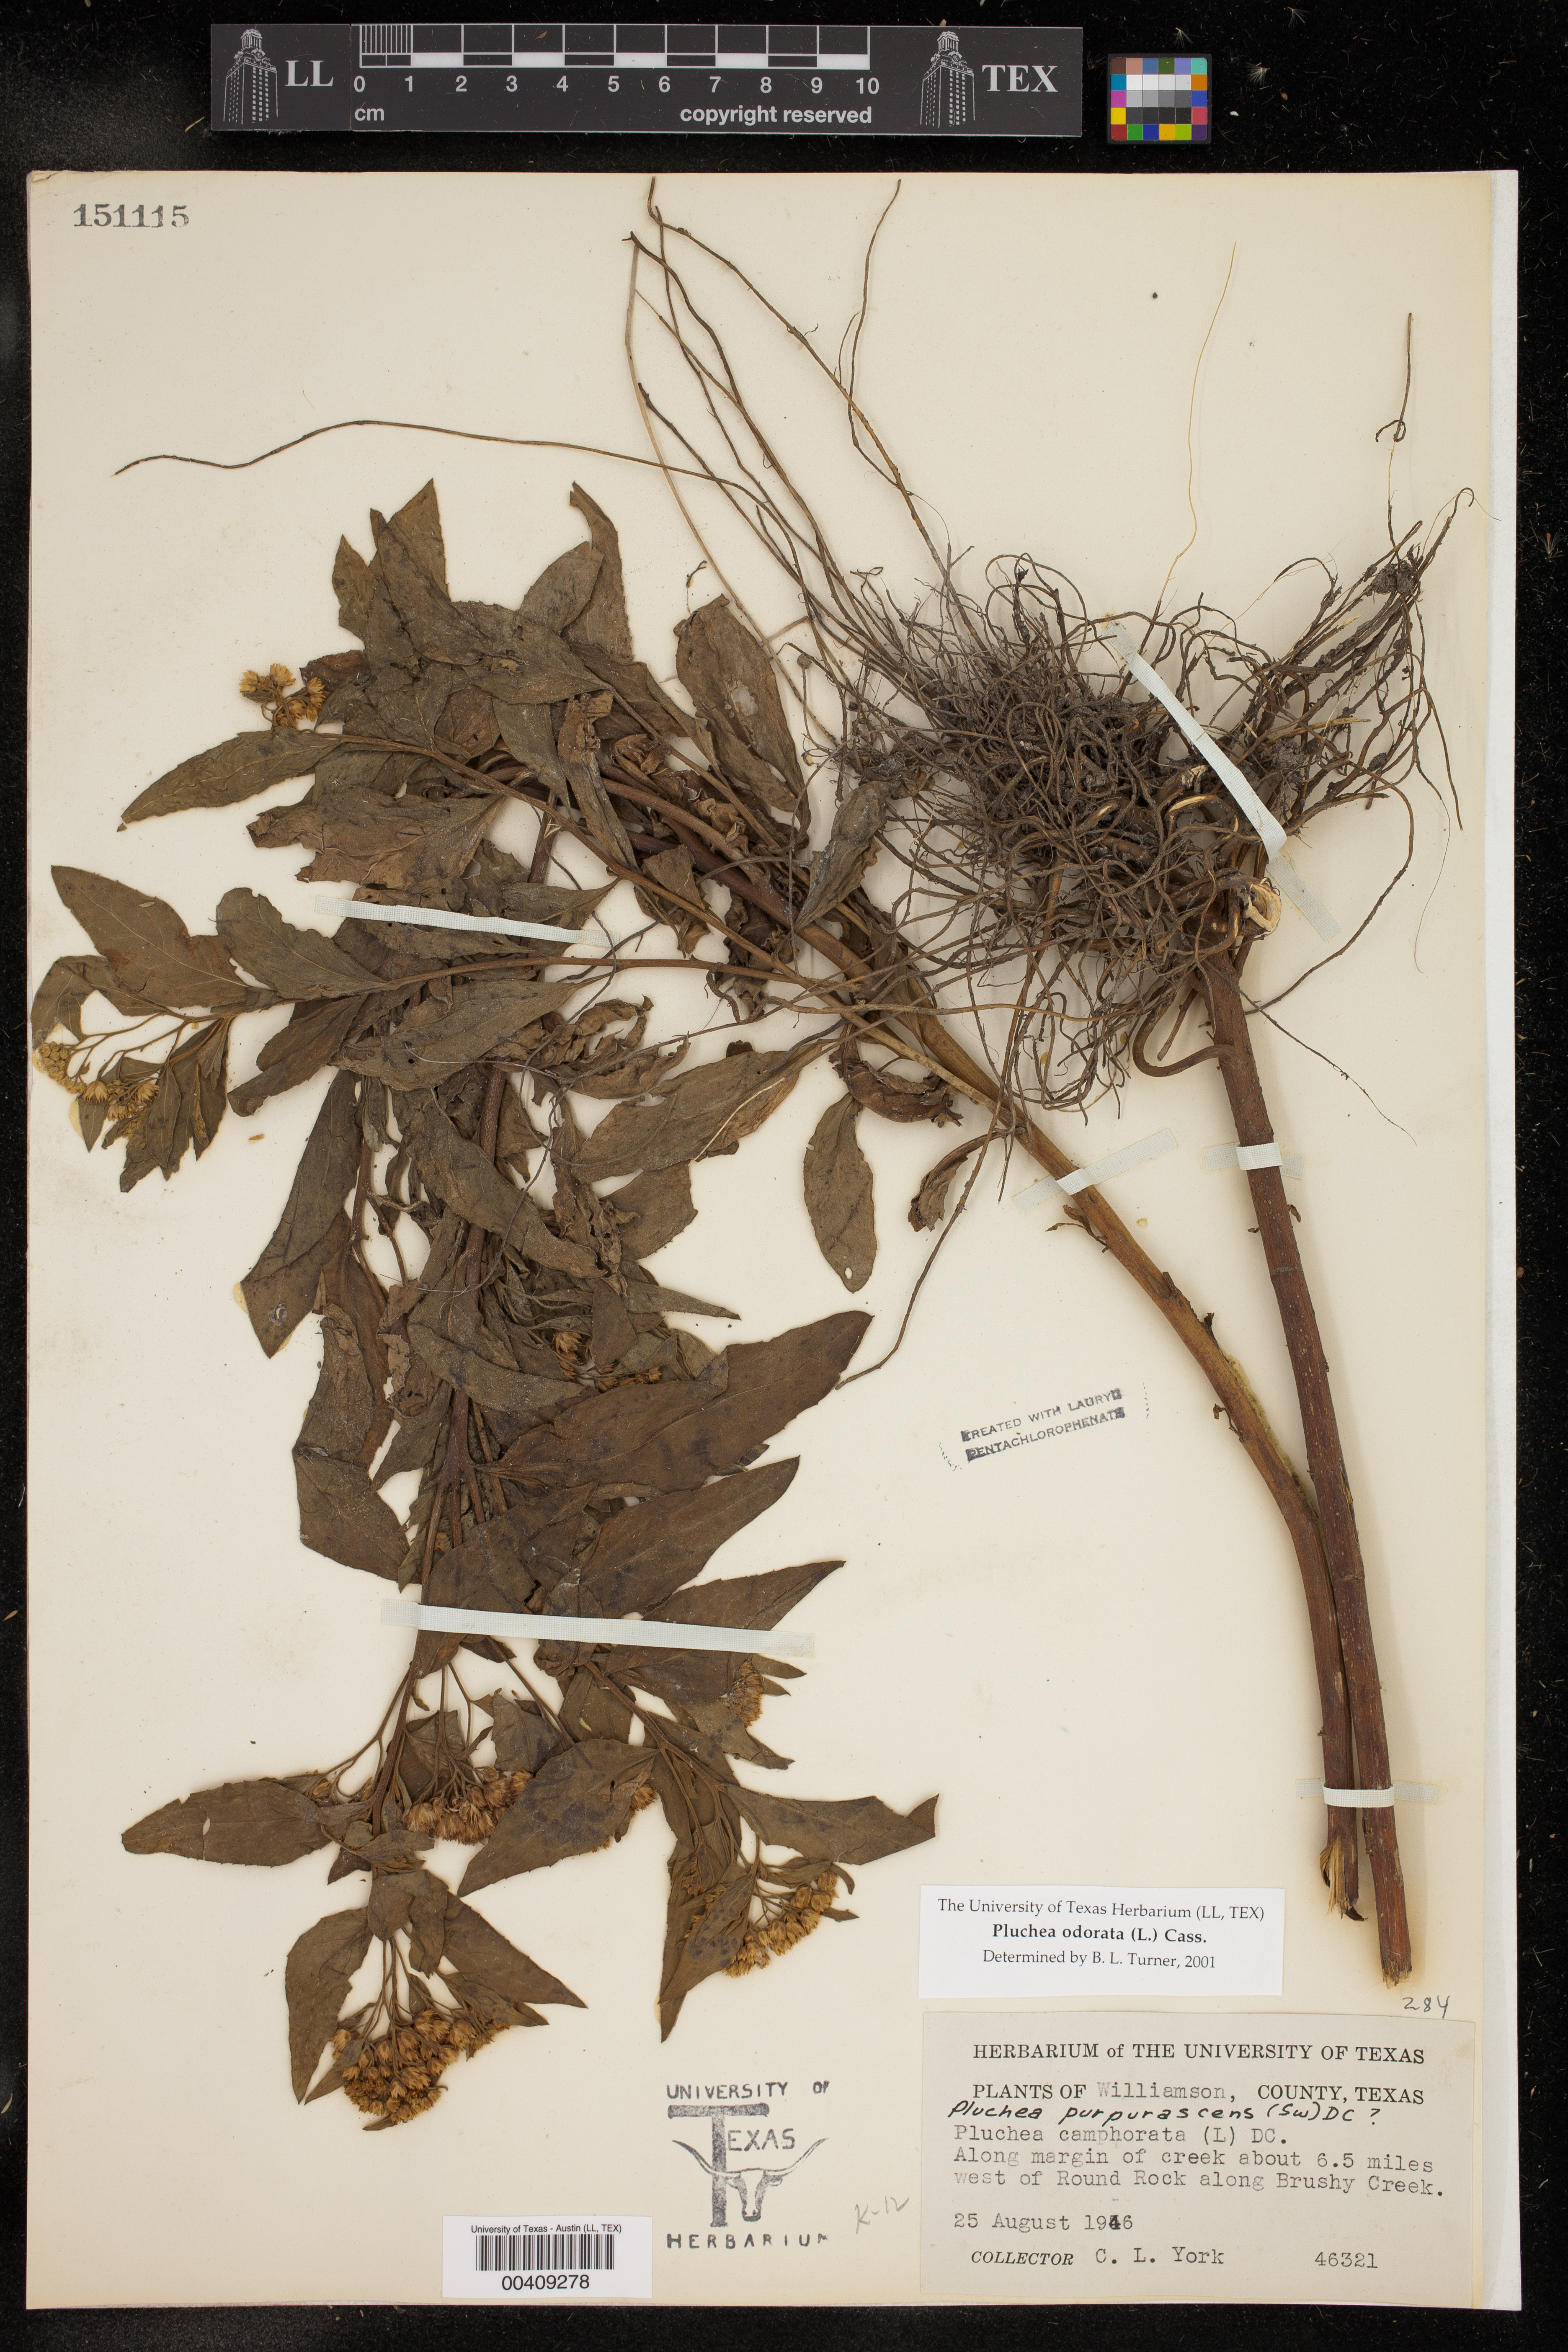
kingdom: Plantae
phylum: Tracheophyta
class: Magnoliopsida
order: Asterales
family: Asteraceae
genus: Pluchea
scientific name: Pluchea odorata
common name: Saltmarsh fleabane
